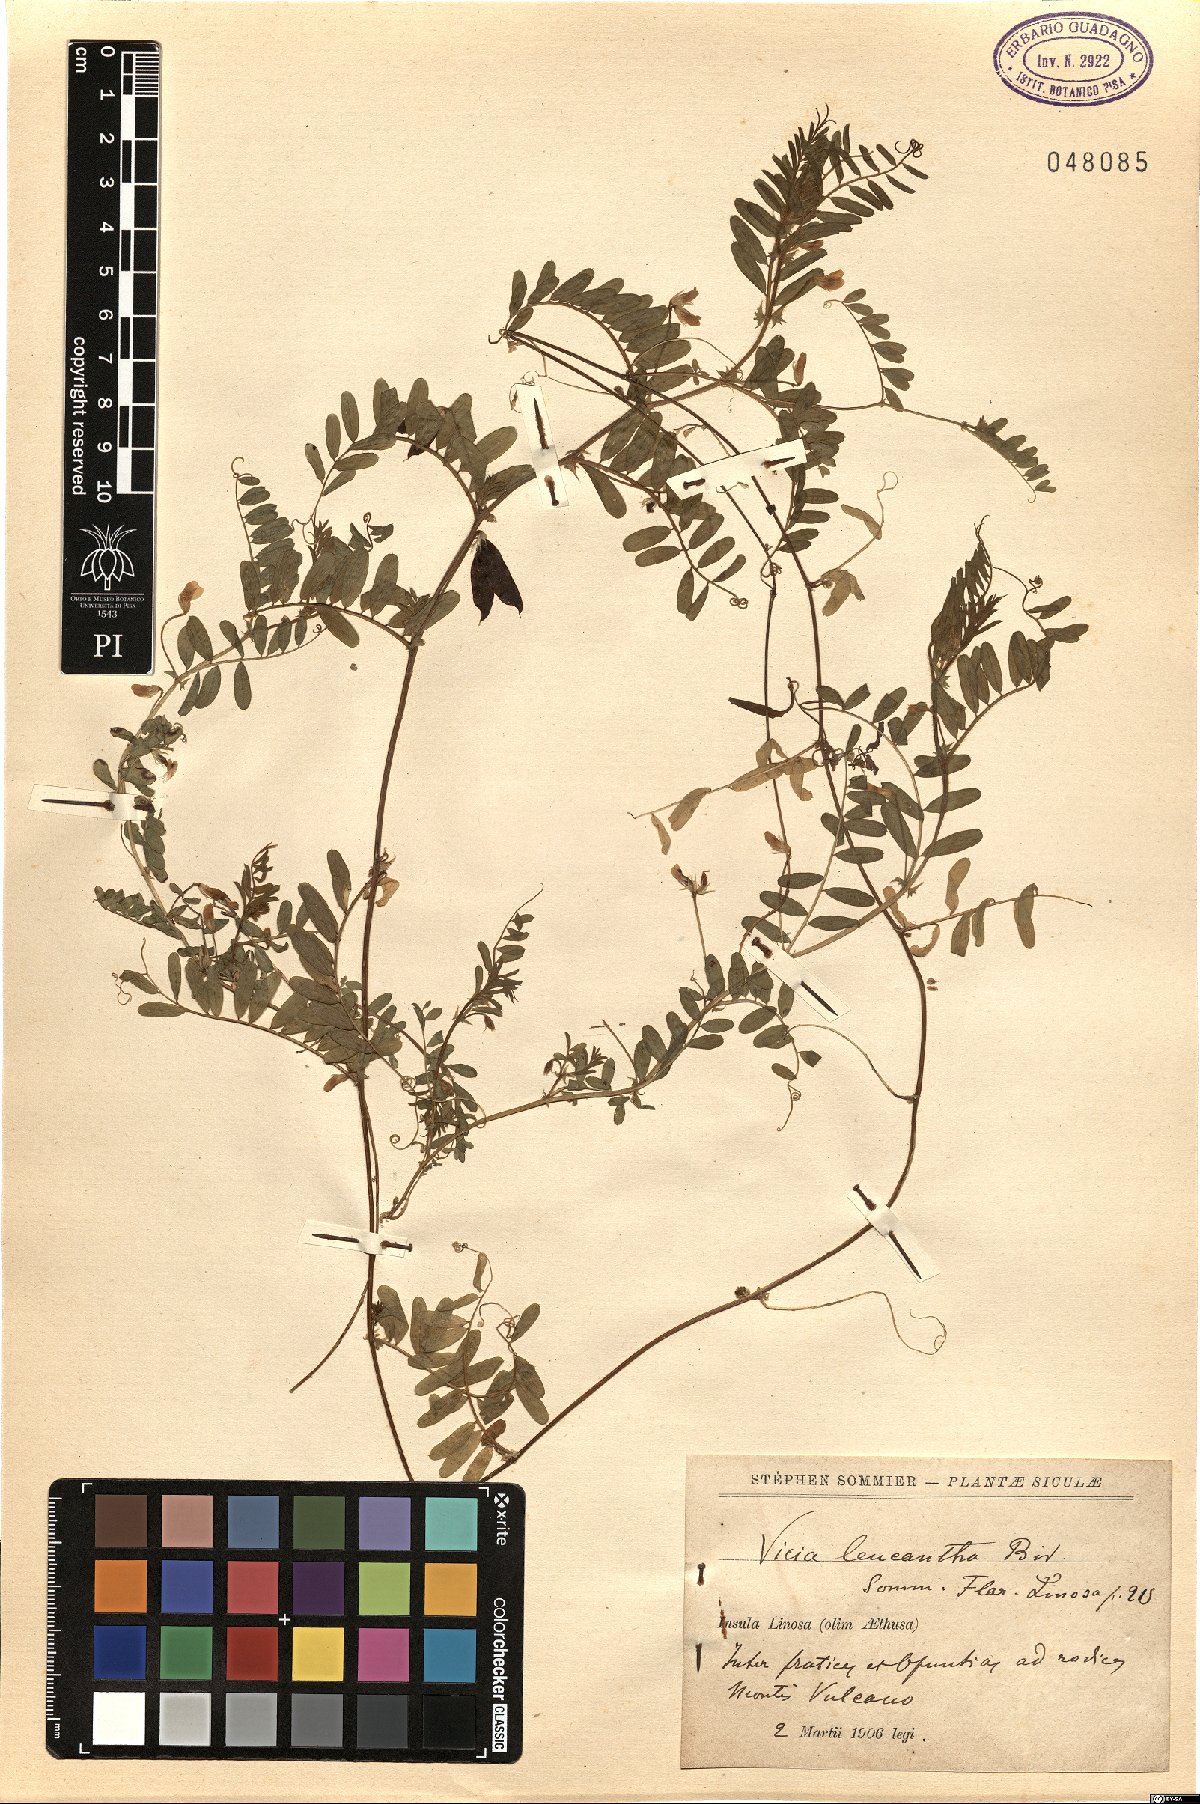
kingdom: Plantae
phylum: Tracheophyta
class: Magnoliopsida
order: Fabales
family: Fabaceae
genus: Vicia
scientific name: Vicia leucantha
